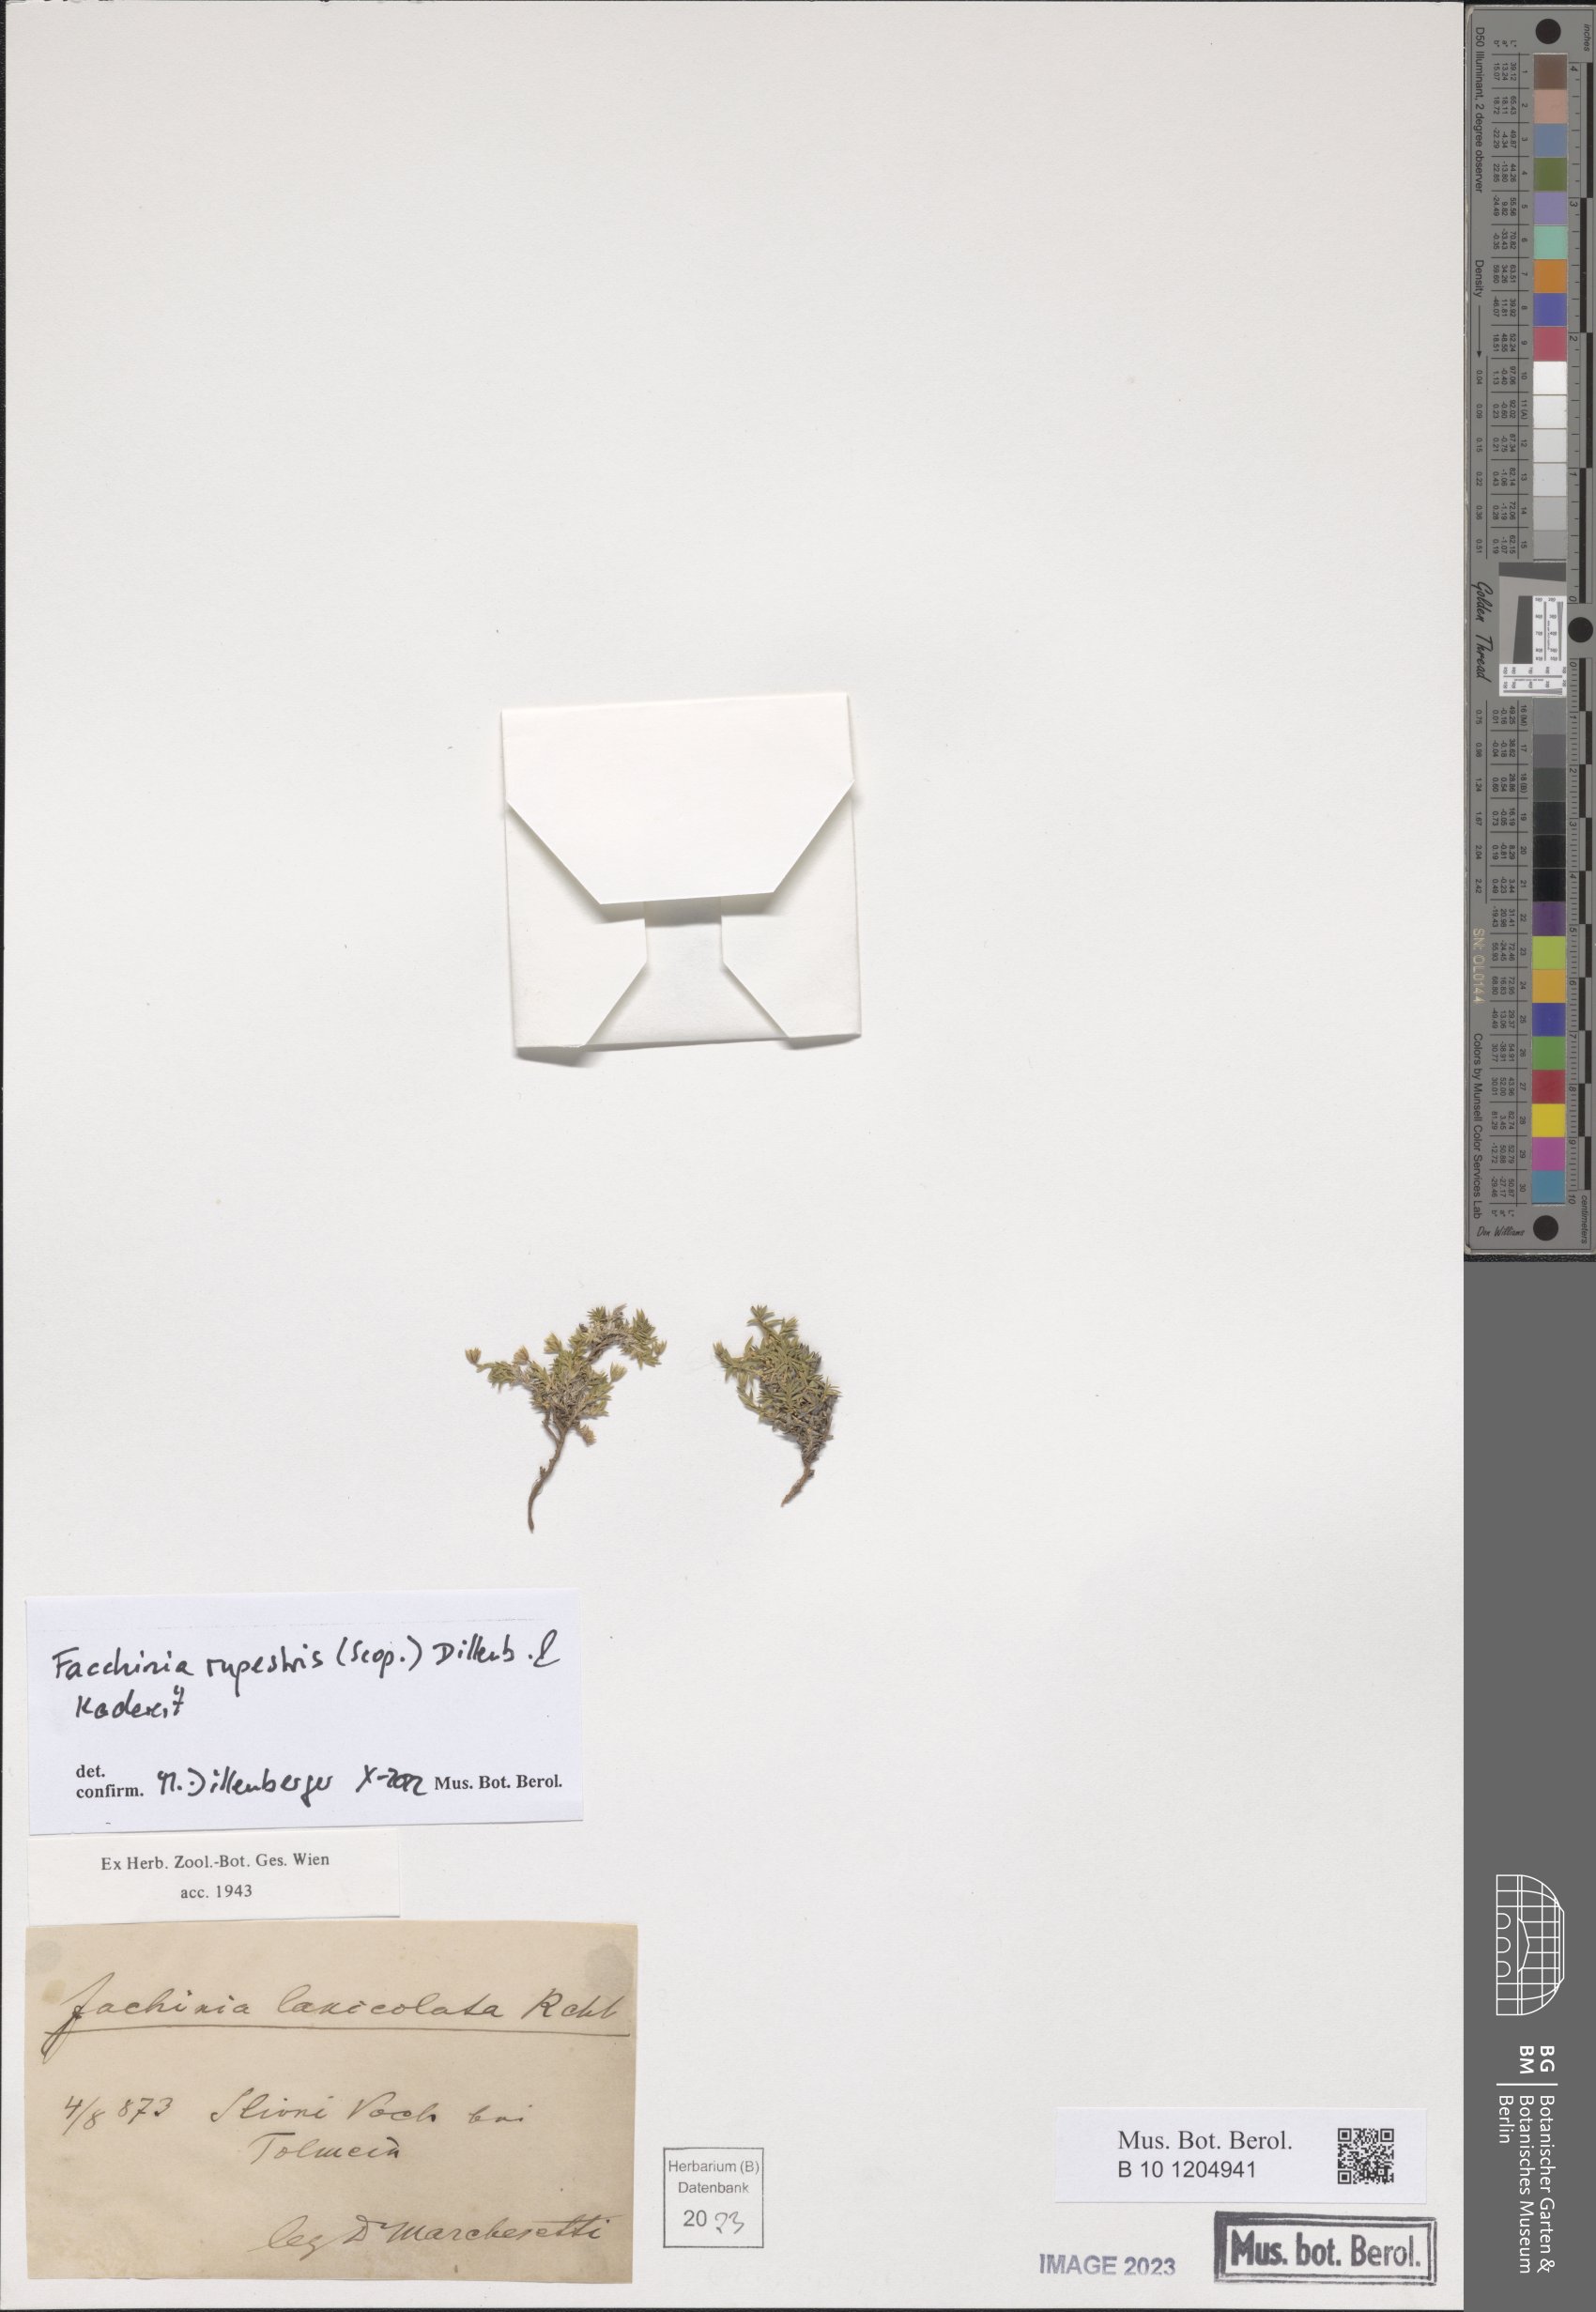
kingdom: Plantae
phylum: Tracheophyta
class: Magnoliopsida
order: Caryophyllales
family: Caryophyllaceae
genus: Facchinia
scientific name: Facchinia rupestris
